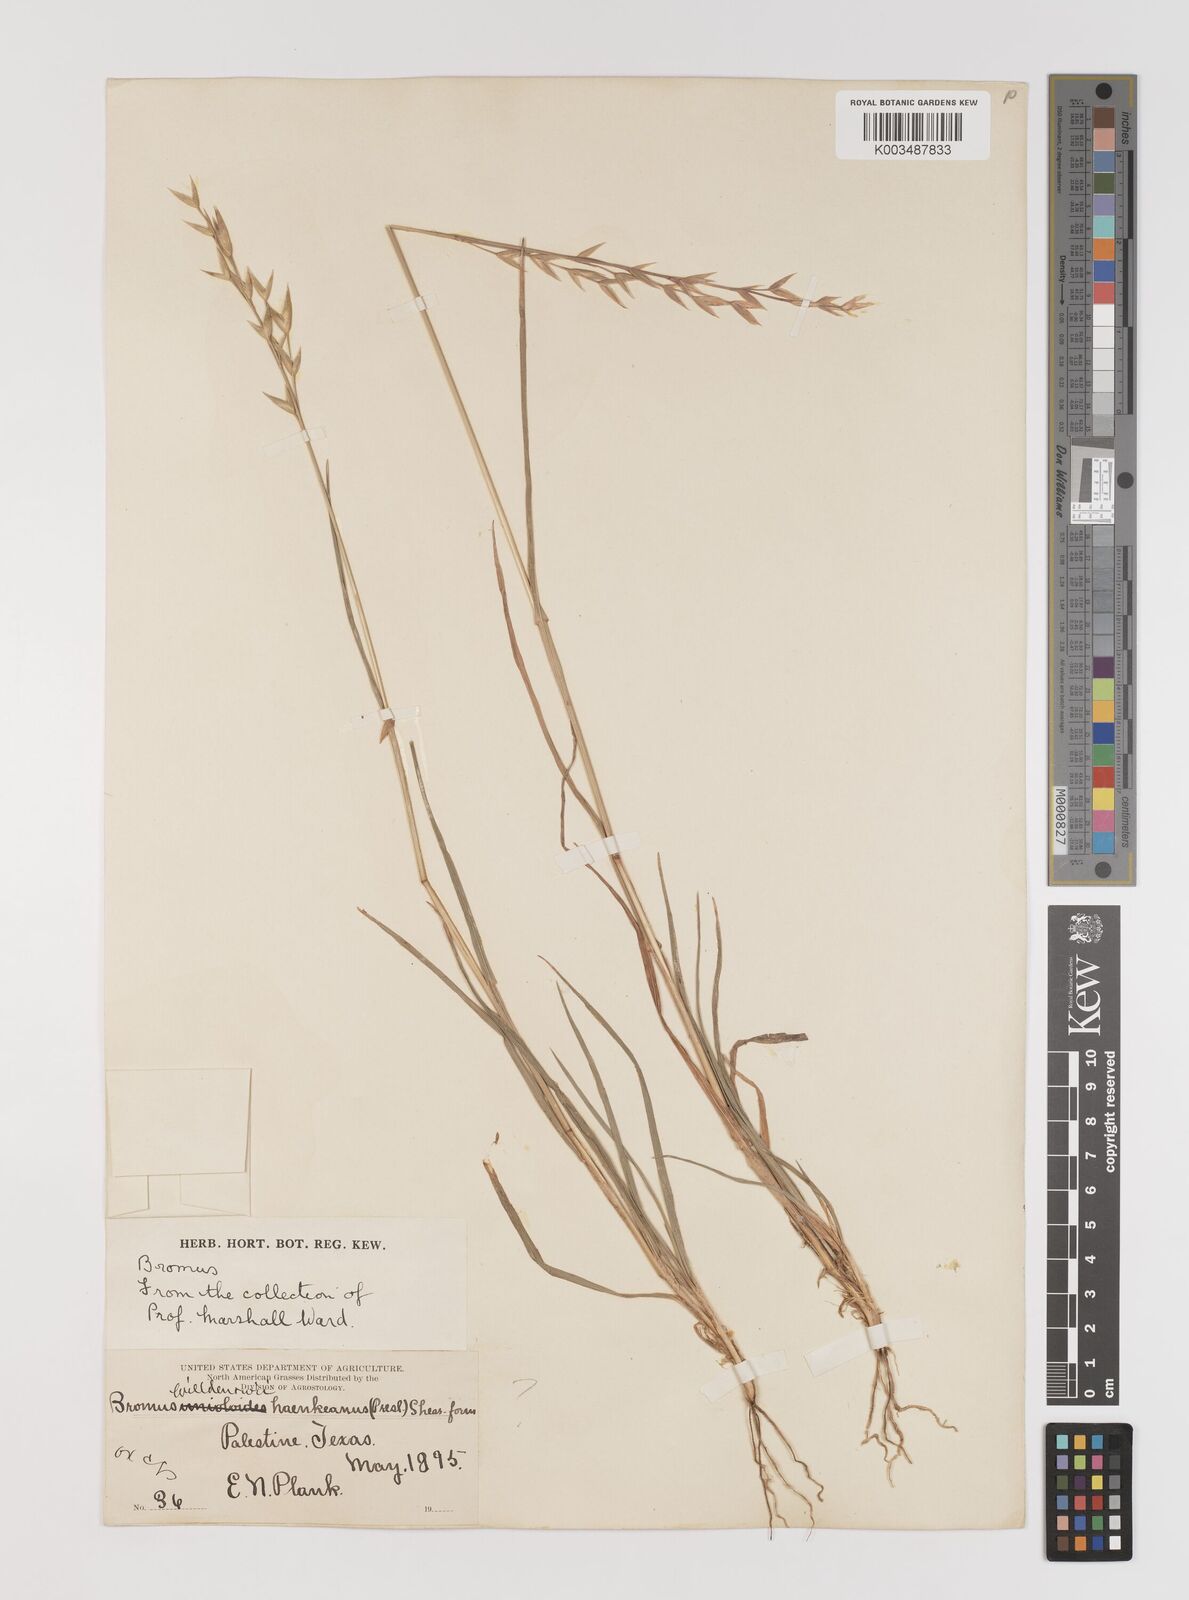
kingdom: Plantae
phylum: Tracheophyta
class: Liliopsida
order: Poales
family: Poaceae
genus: Bromus
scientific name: Bromus catharticus
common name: Rescuegrass
